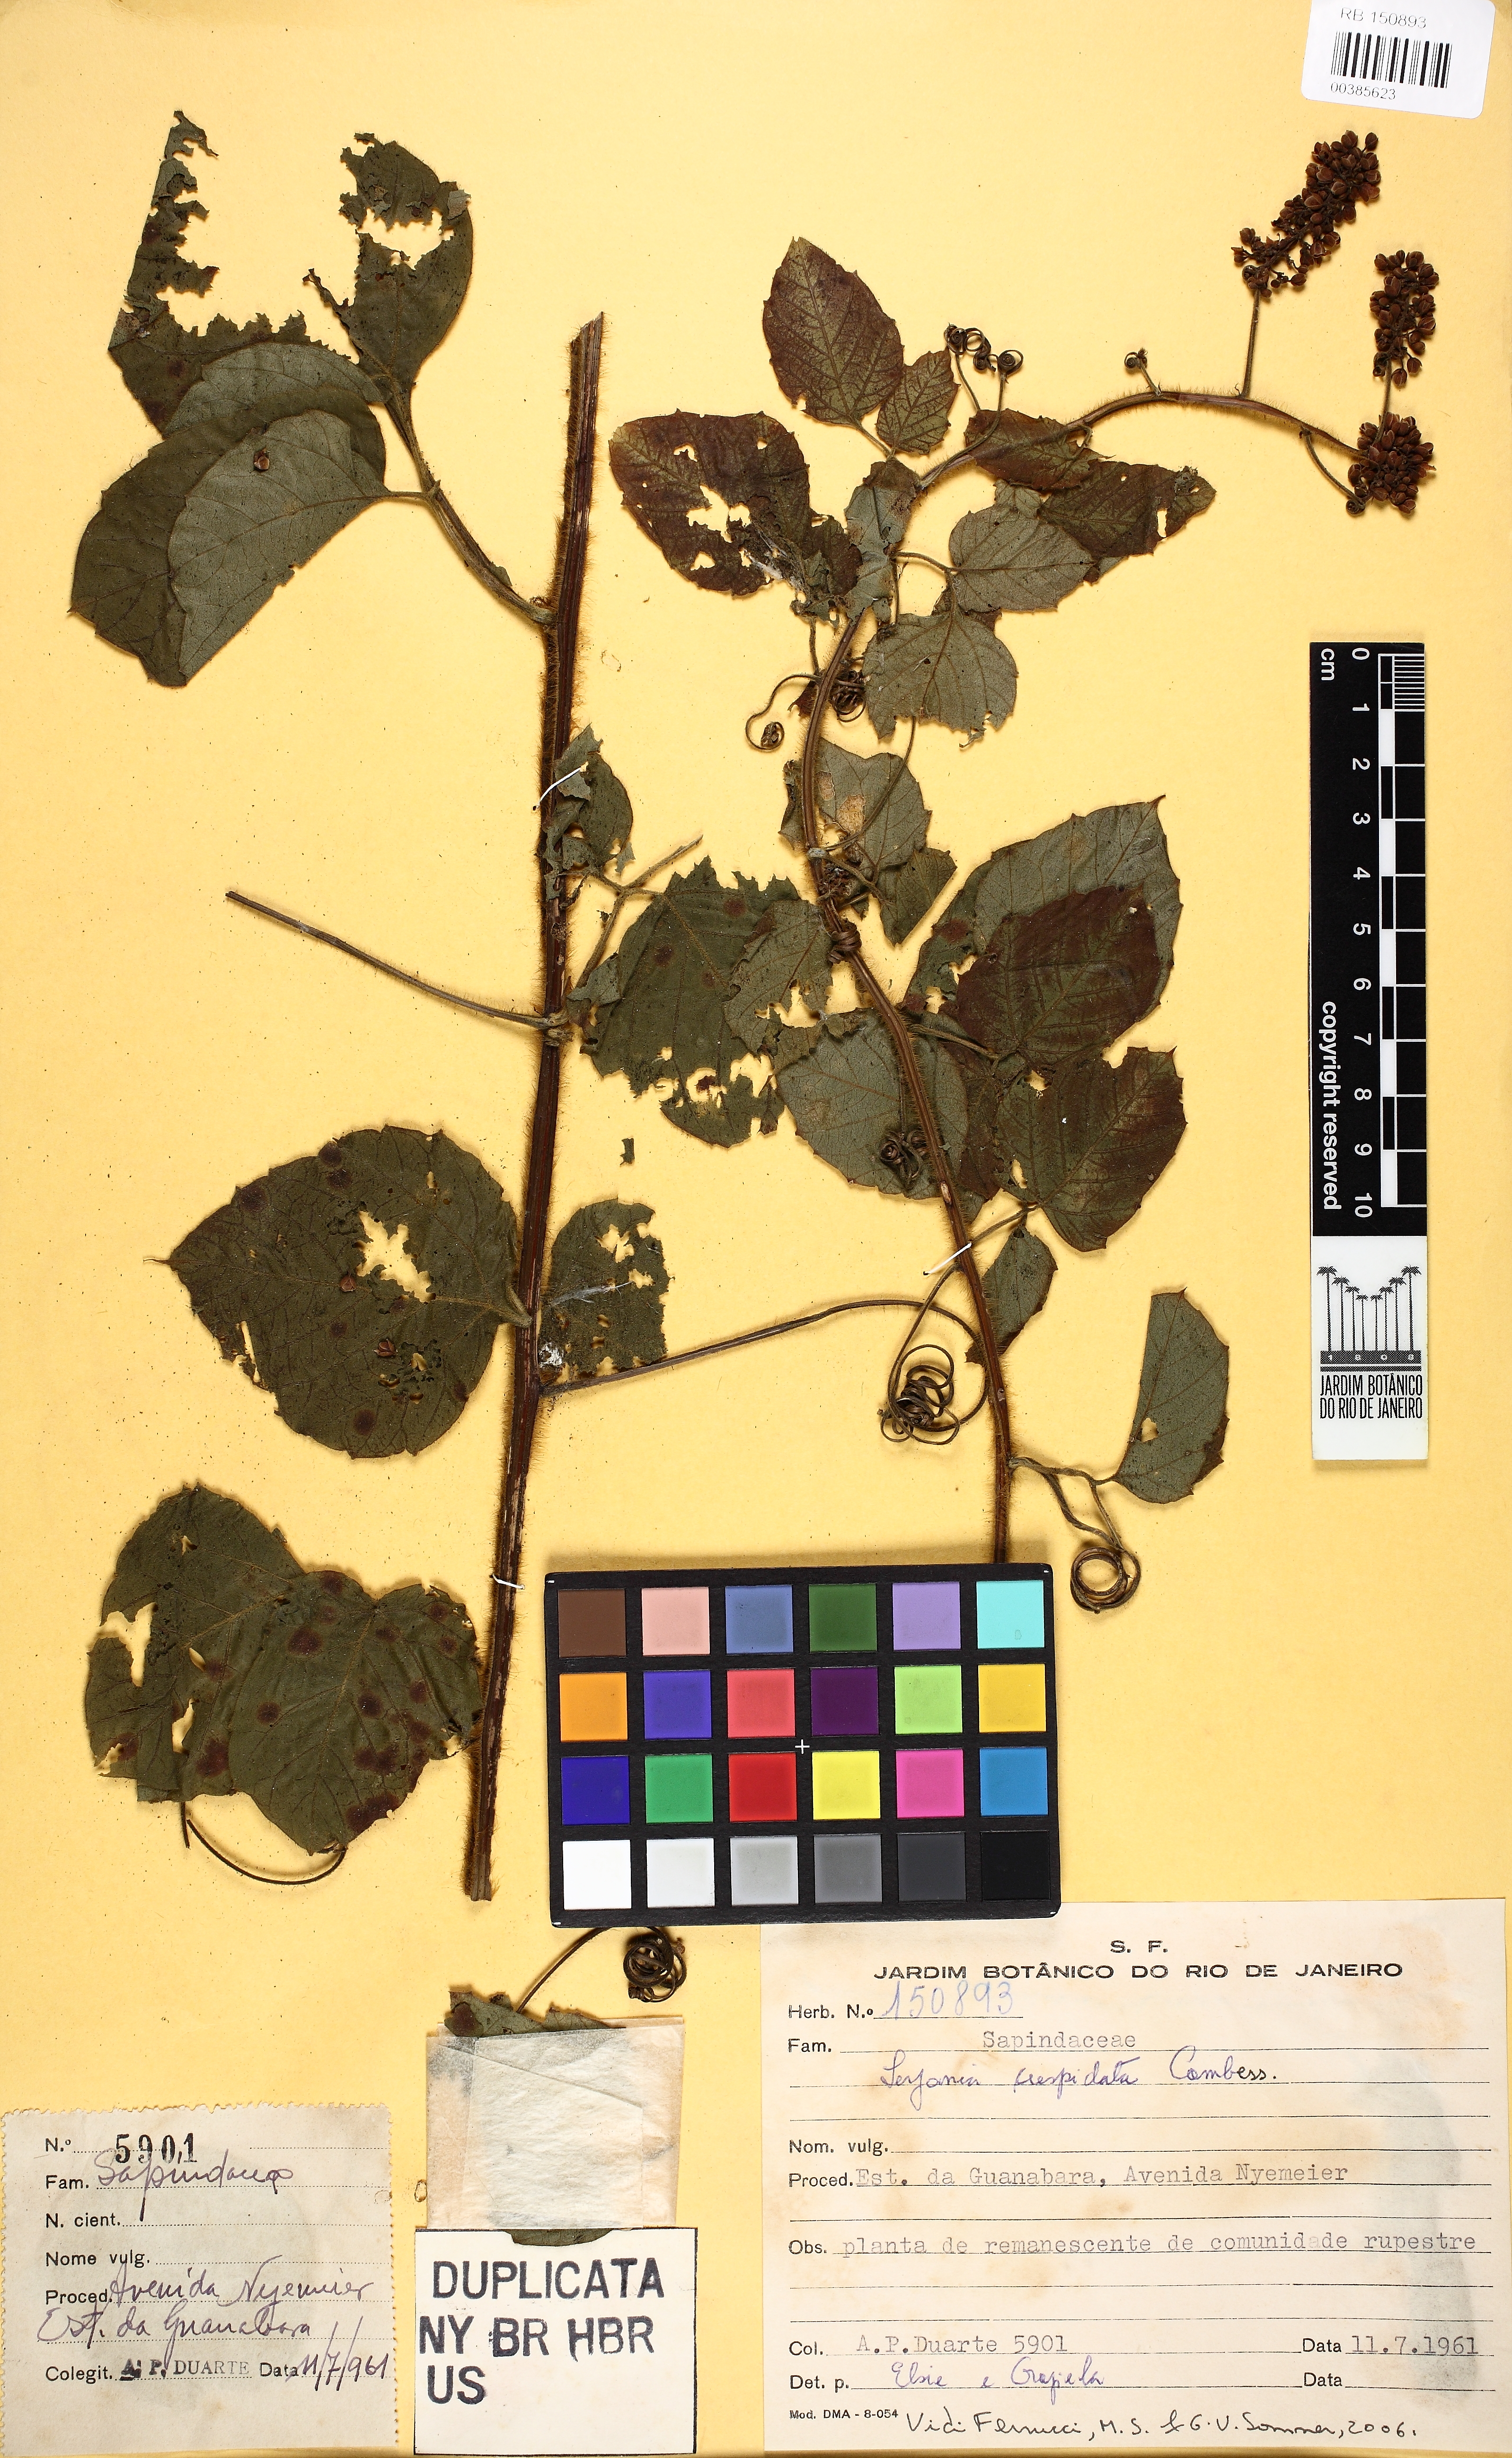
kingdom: Plantae
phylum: Tracheophyta
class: Magnoliopsida
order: Sapindales
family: Sapindaceae
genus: Serjania
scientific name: Serjania ferruginea
